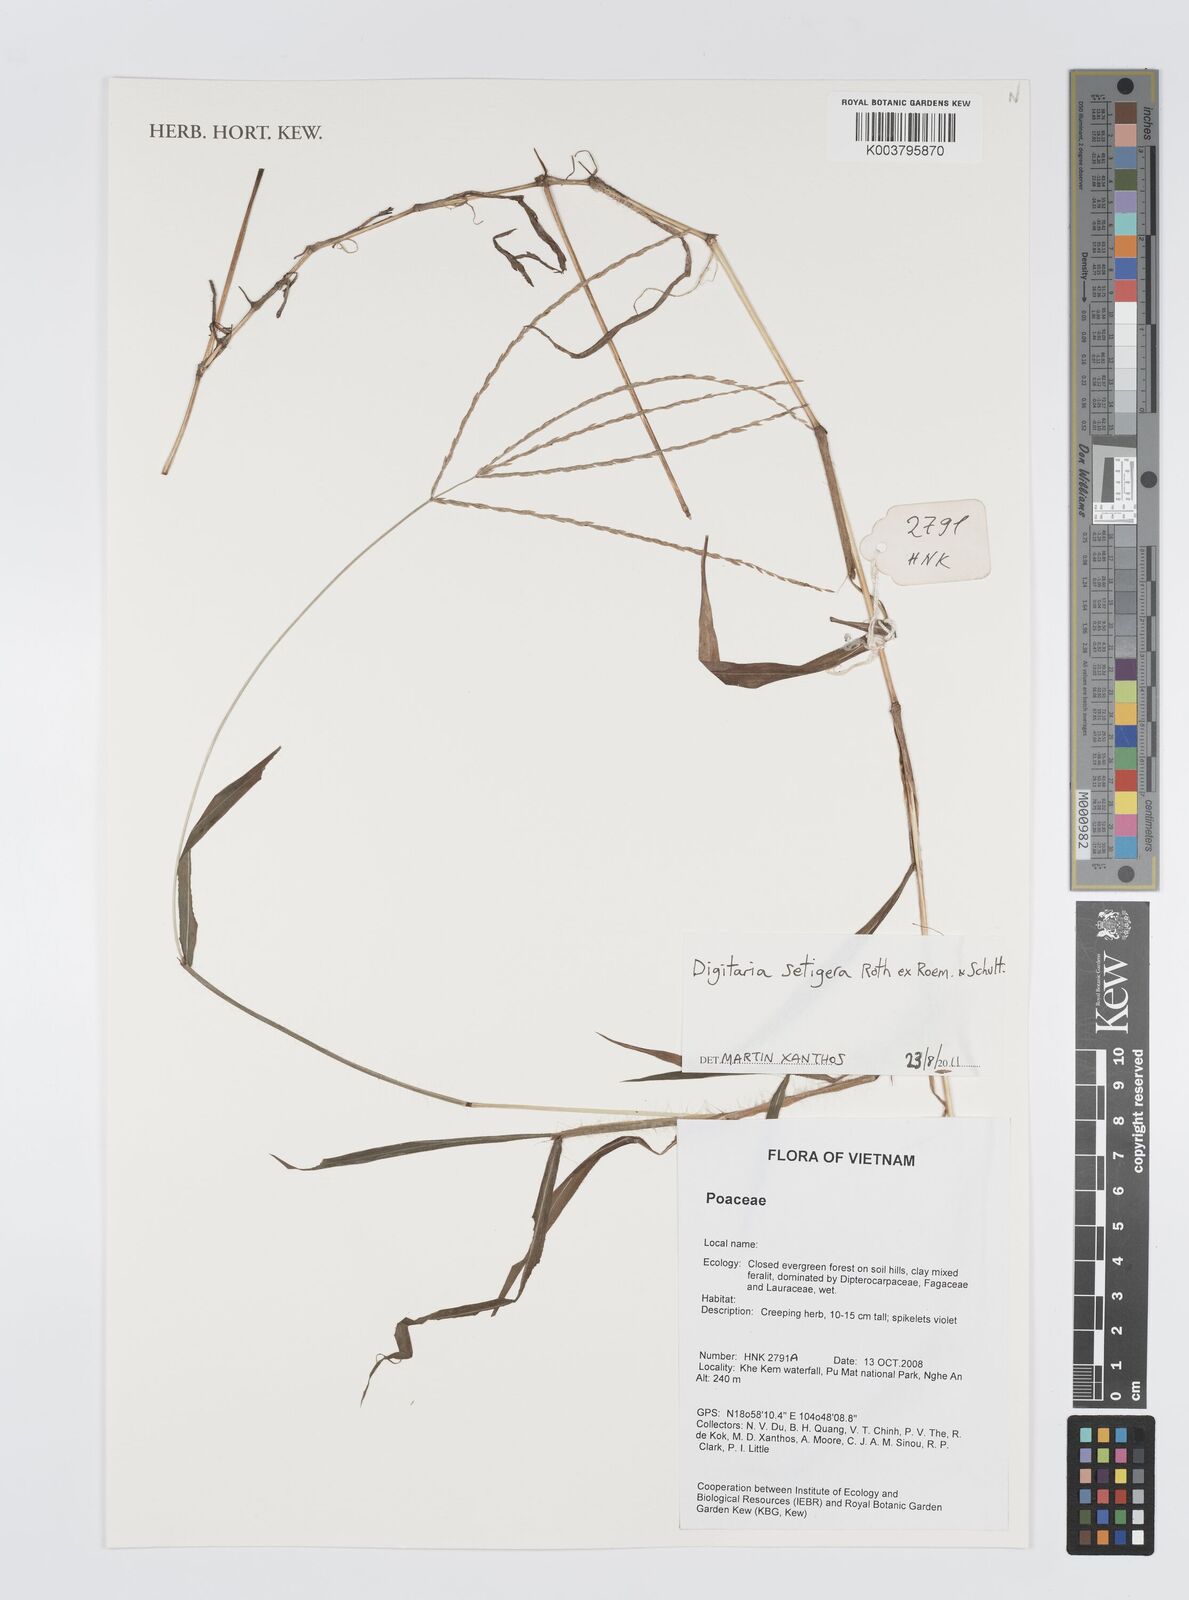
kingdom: Plantae
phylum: Tracheophyta
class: Liliopsida
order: Poales
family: Poaceae
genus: Digitaria
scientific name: Digitaria setigera
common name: East indian crabgrass
